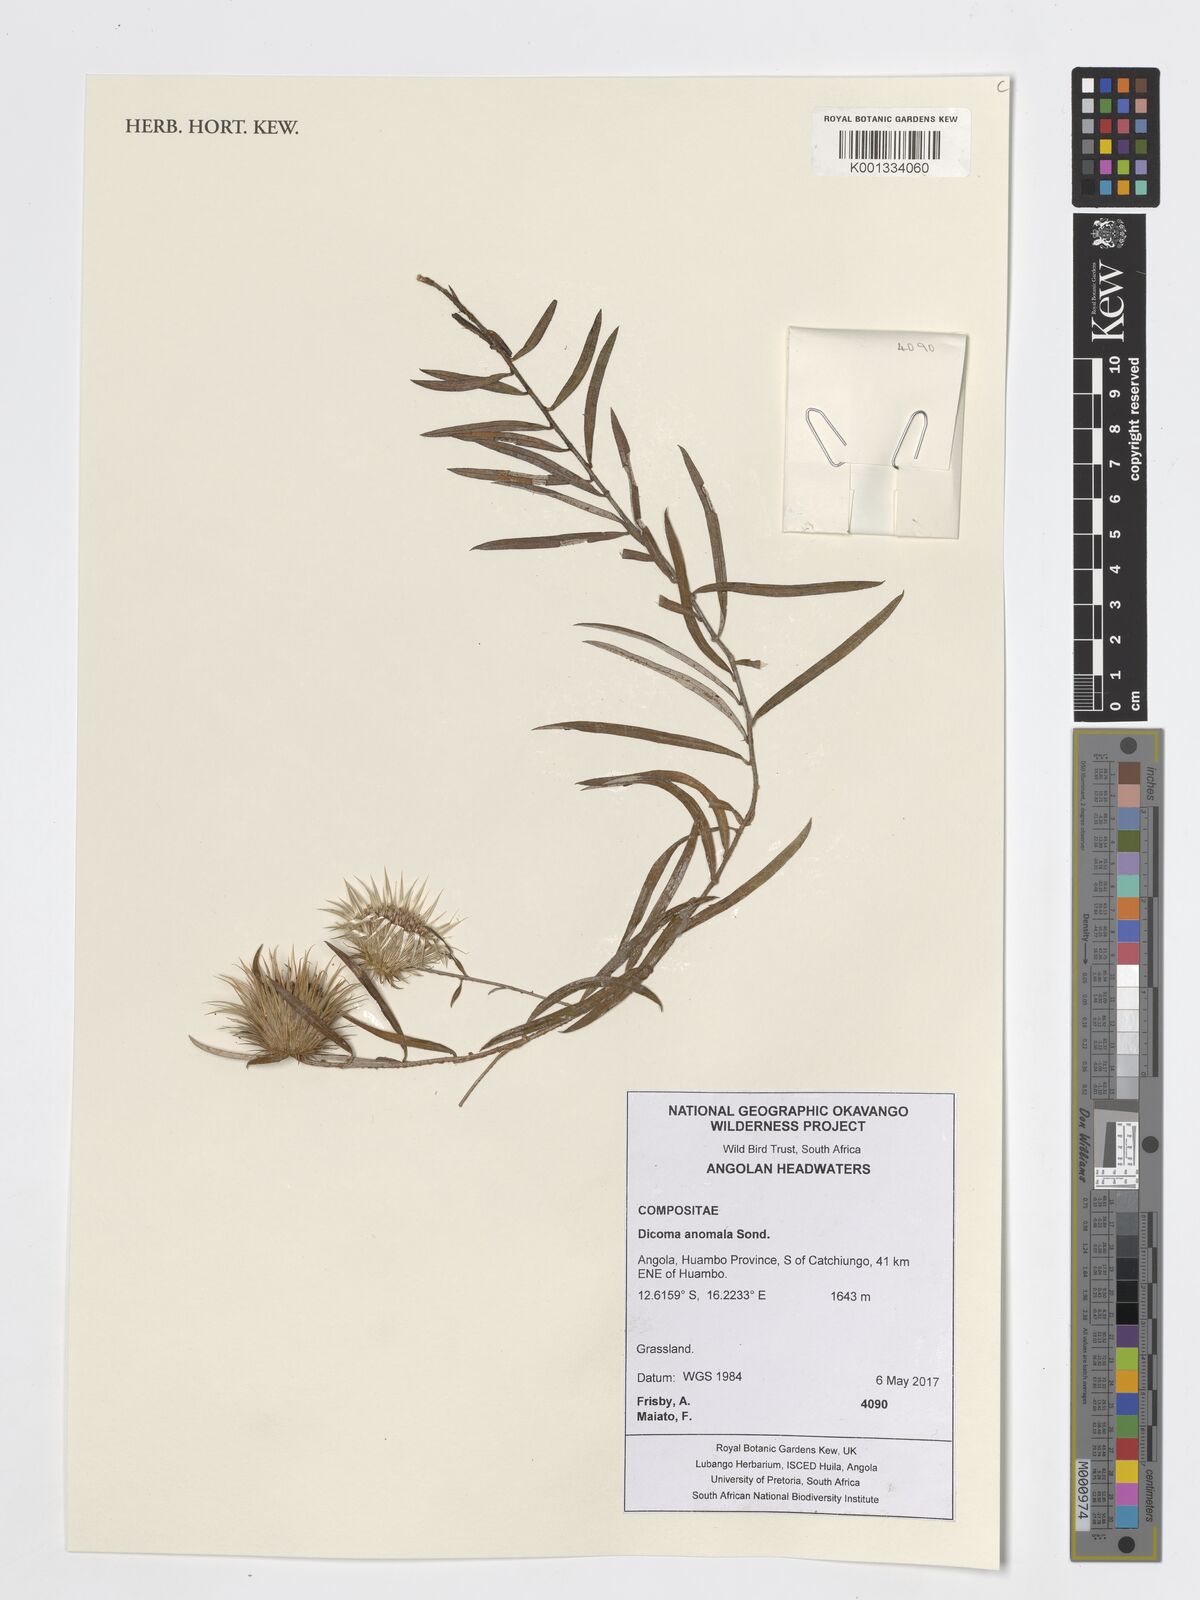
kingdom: Plantae
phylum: Tracheophyta
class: Magnoliopsida
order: Asterales
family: Asteraceae
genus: Dicoma
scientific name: Dicoma anomala
